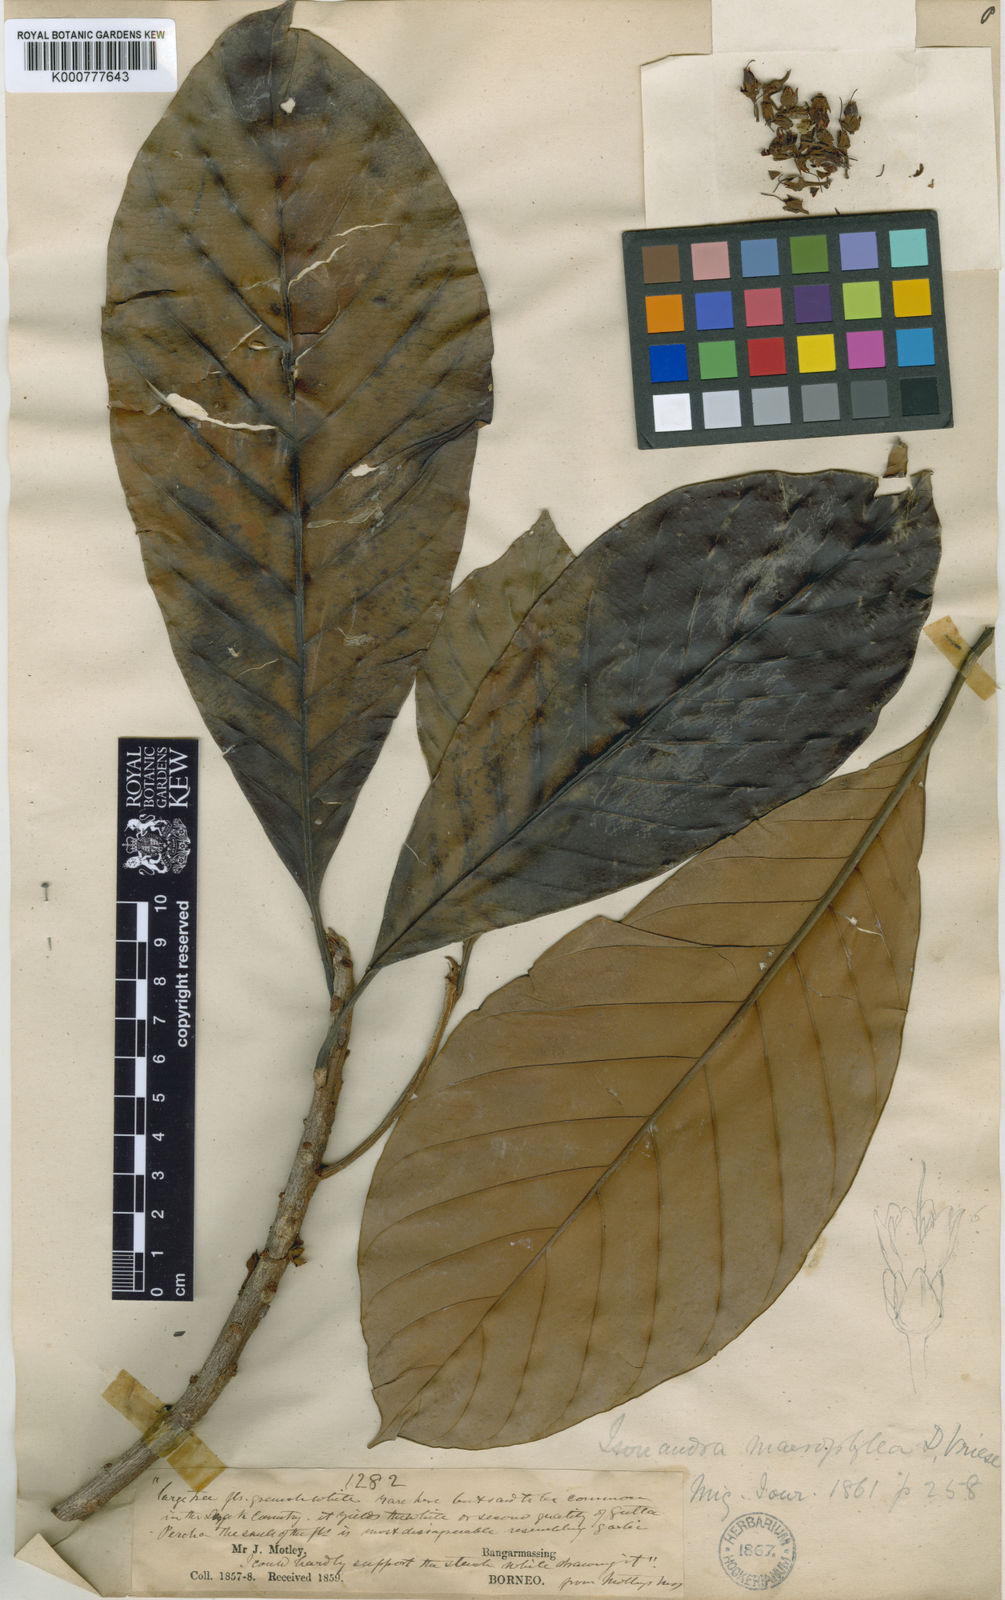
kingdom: Plantae
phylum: Tracheophyta
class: Magnoliopsida
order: Ericales
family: Sapotaceae
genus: Palaquium
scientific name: Palaquium quercifolium
